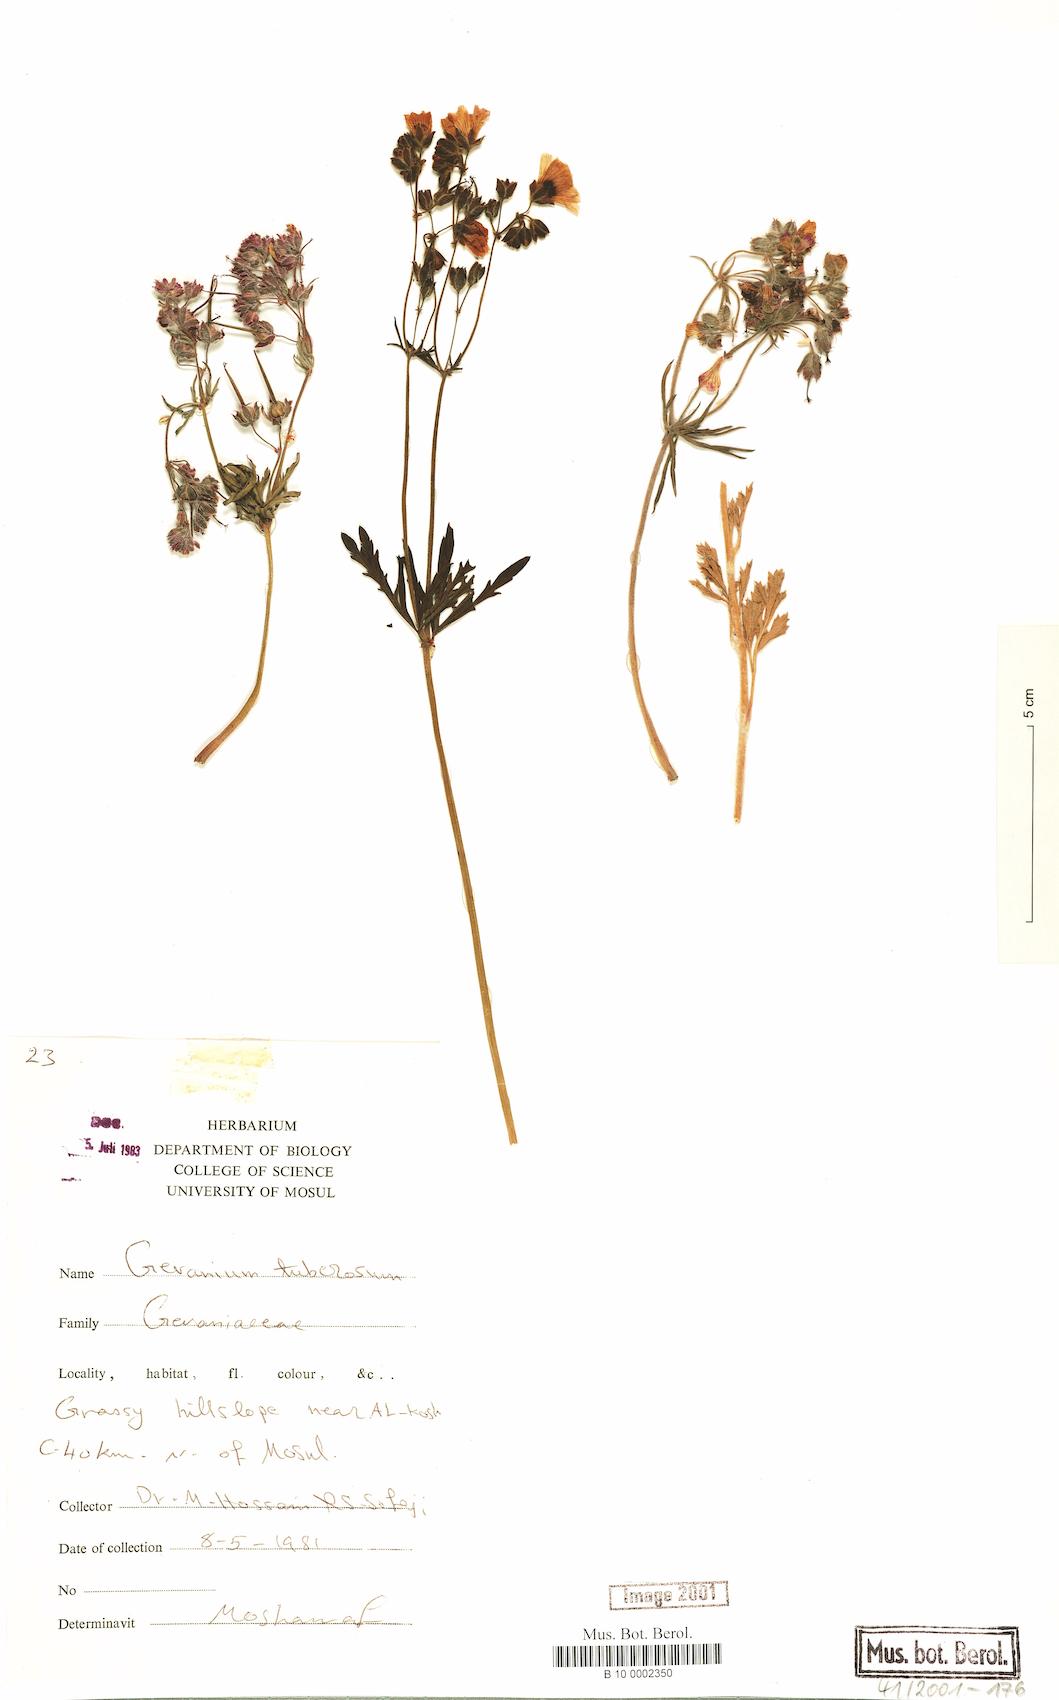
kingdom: Plantae
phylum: Tracheophyta
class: Magnoliopsida
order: Geraniales
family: Geraniaceae
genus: Geranium
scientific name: Geranium tuberosum
